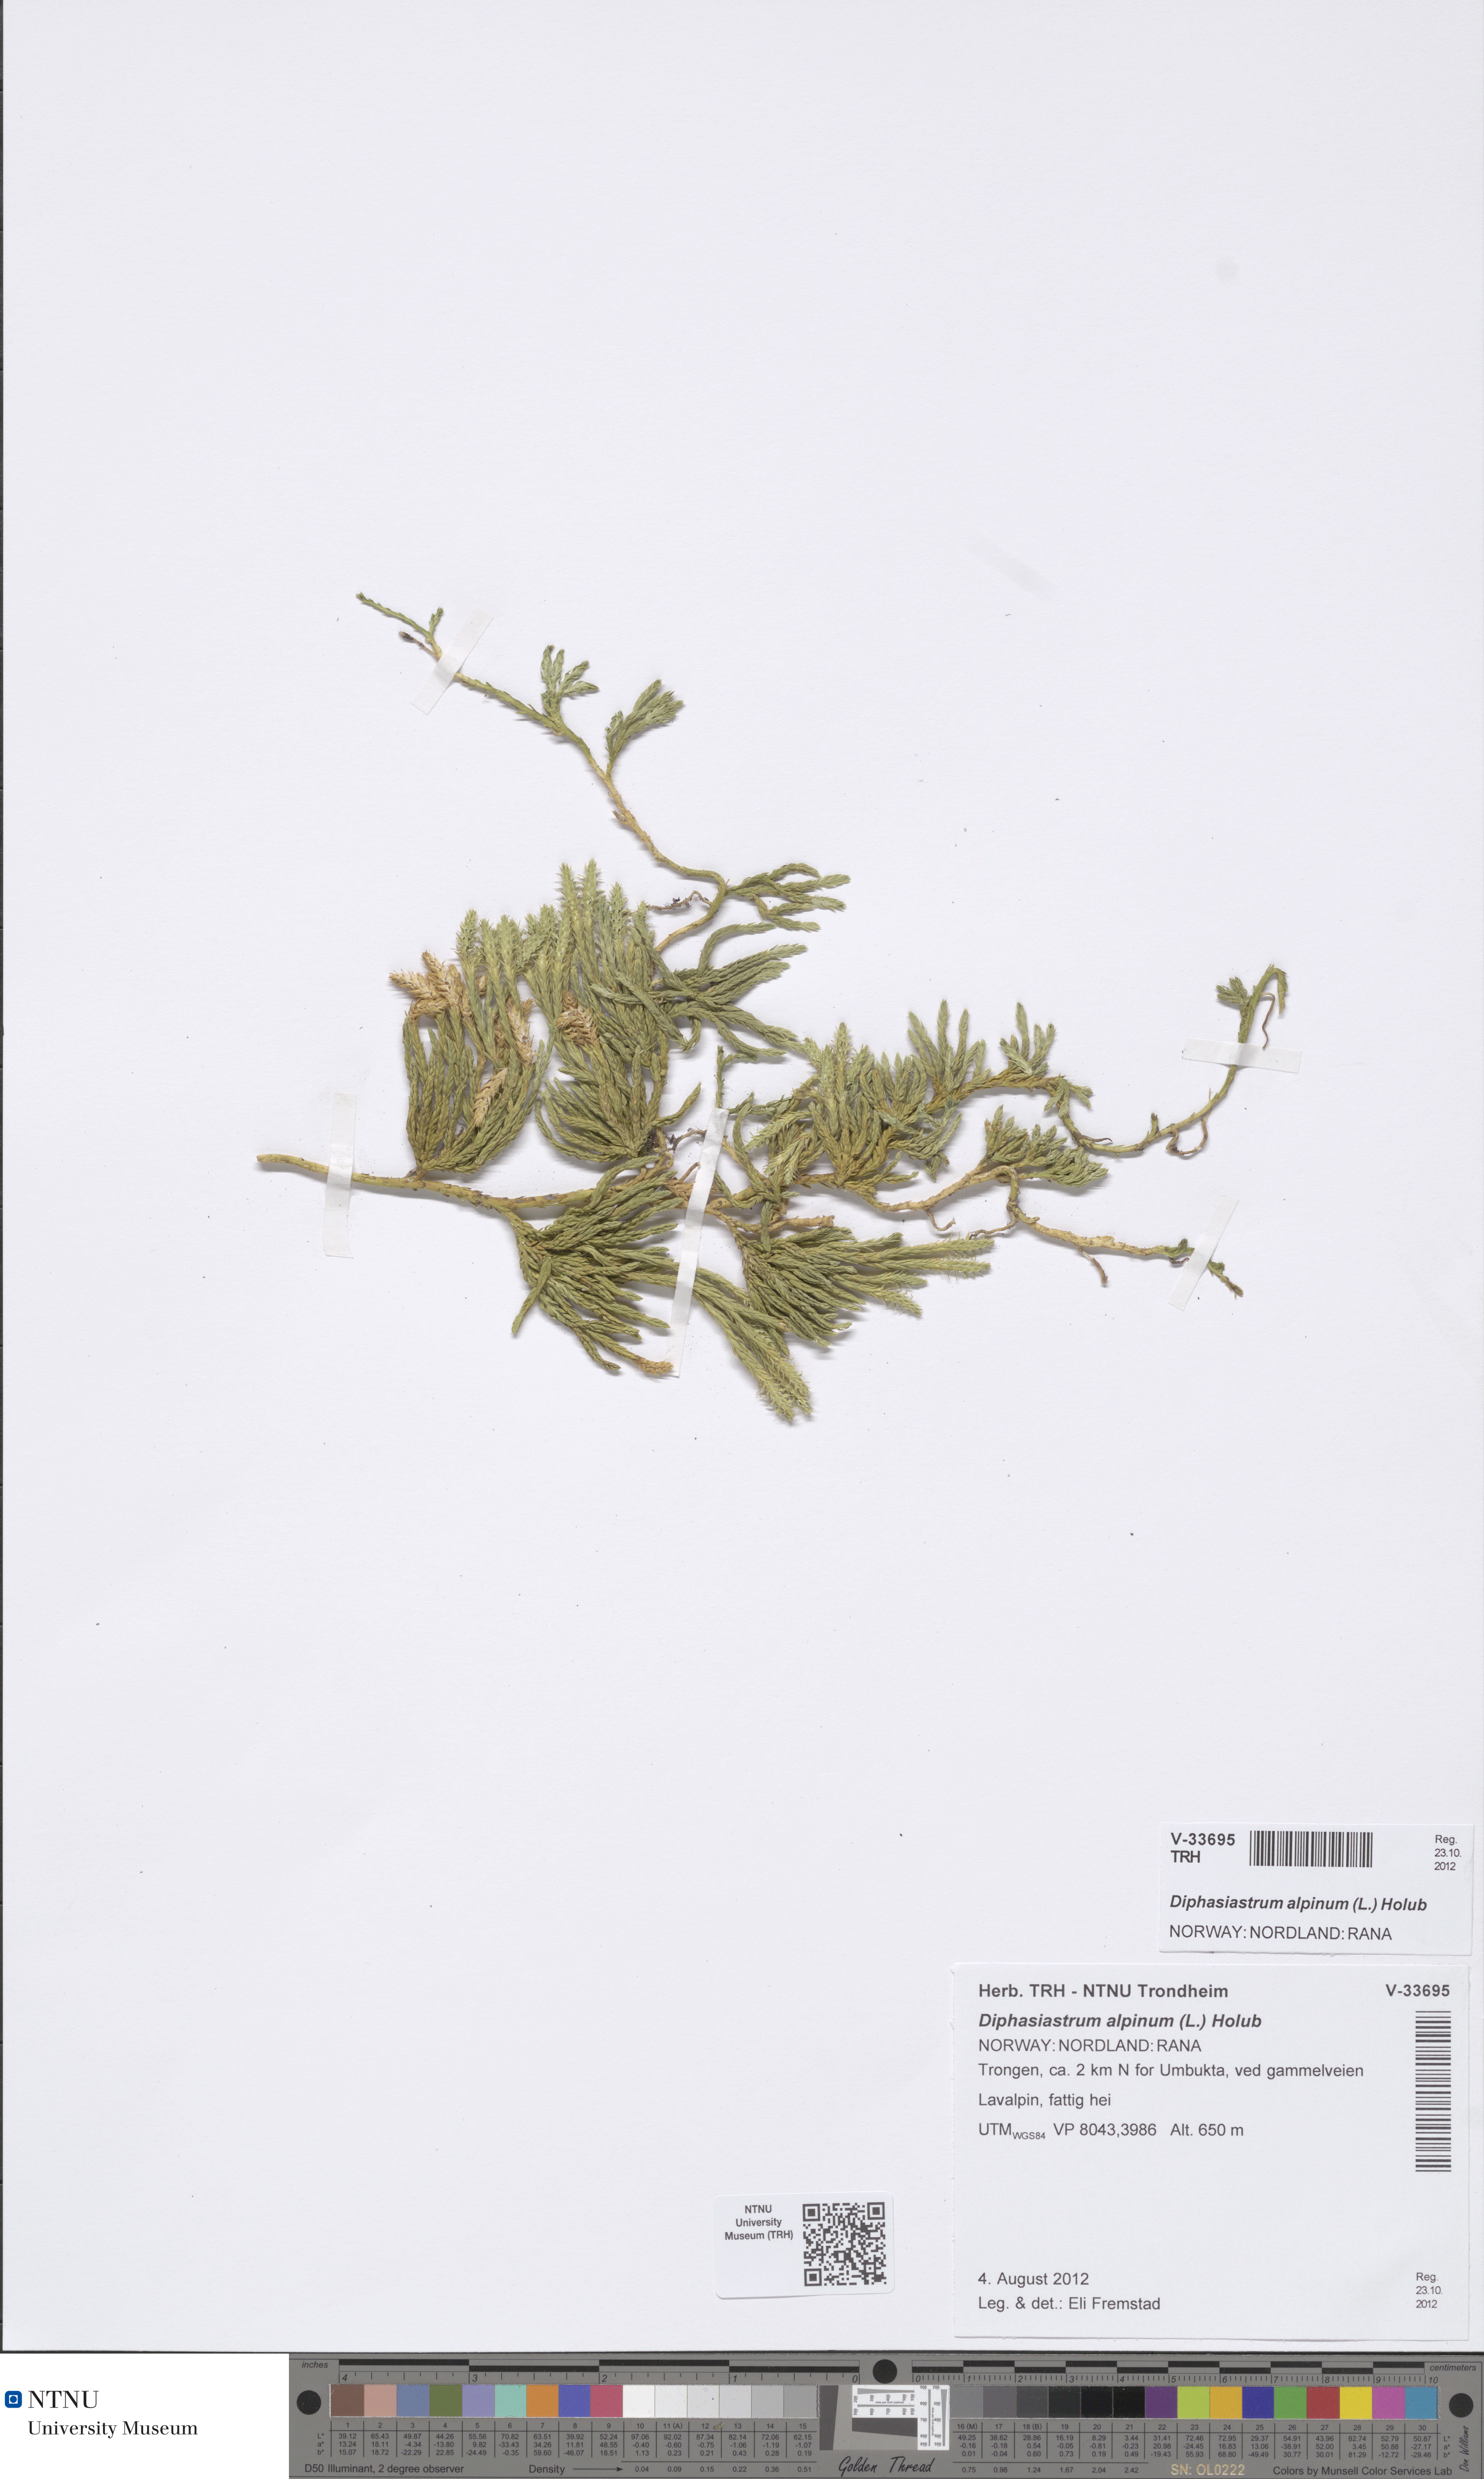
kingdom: Plantae
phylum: Tracheophyta
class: Lycopodiopsida
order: Lycopodiales
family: Lycopodiaceae
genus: Diphasiastrum
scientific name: Diphasiastrum alpinum
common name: Alpine clubmoss
